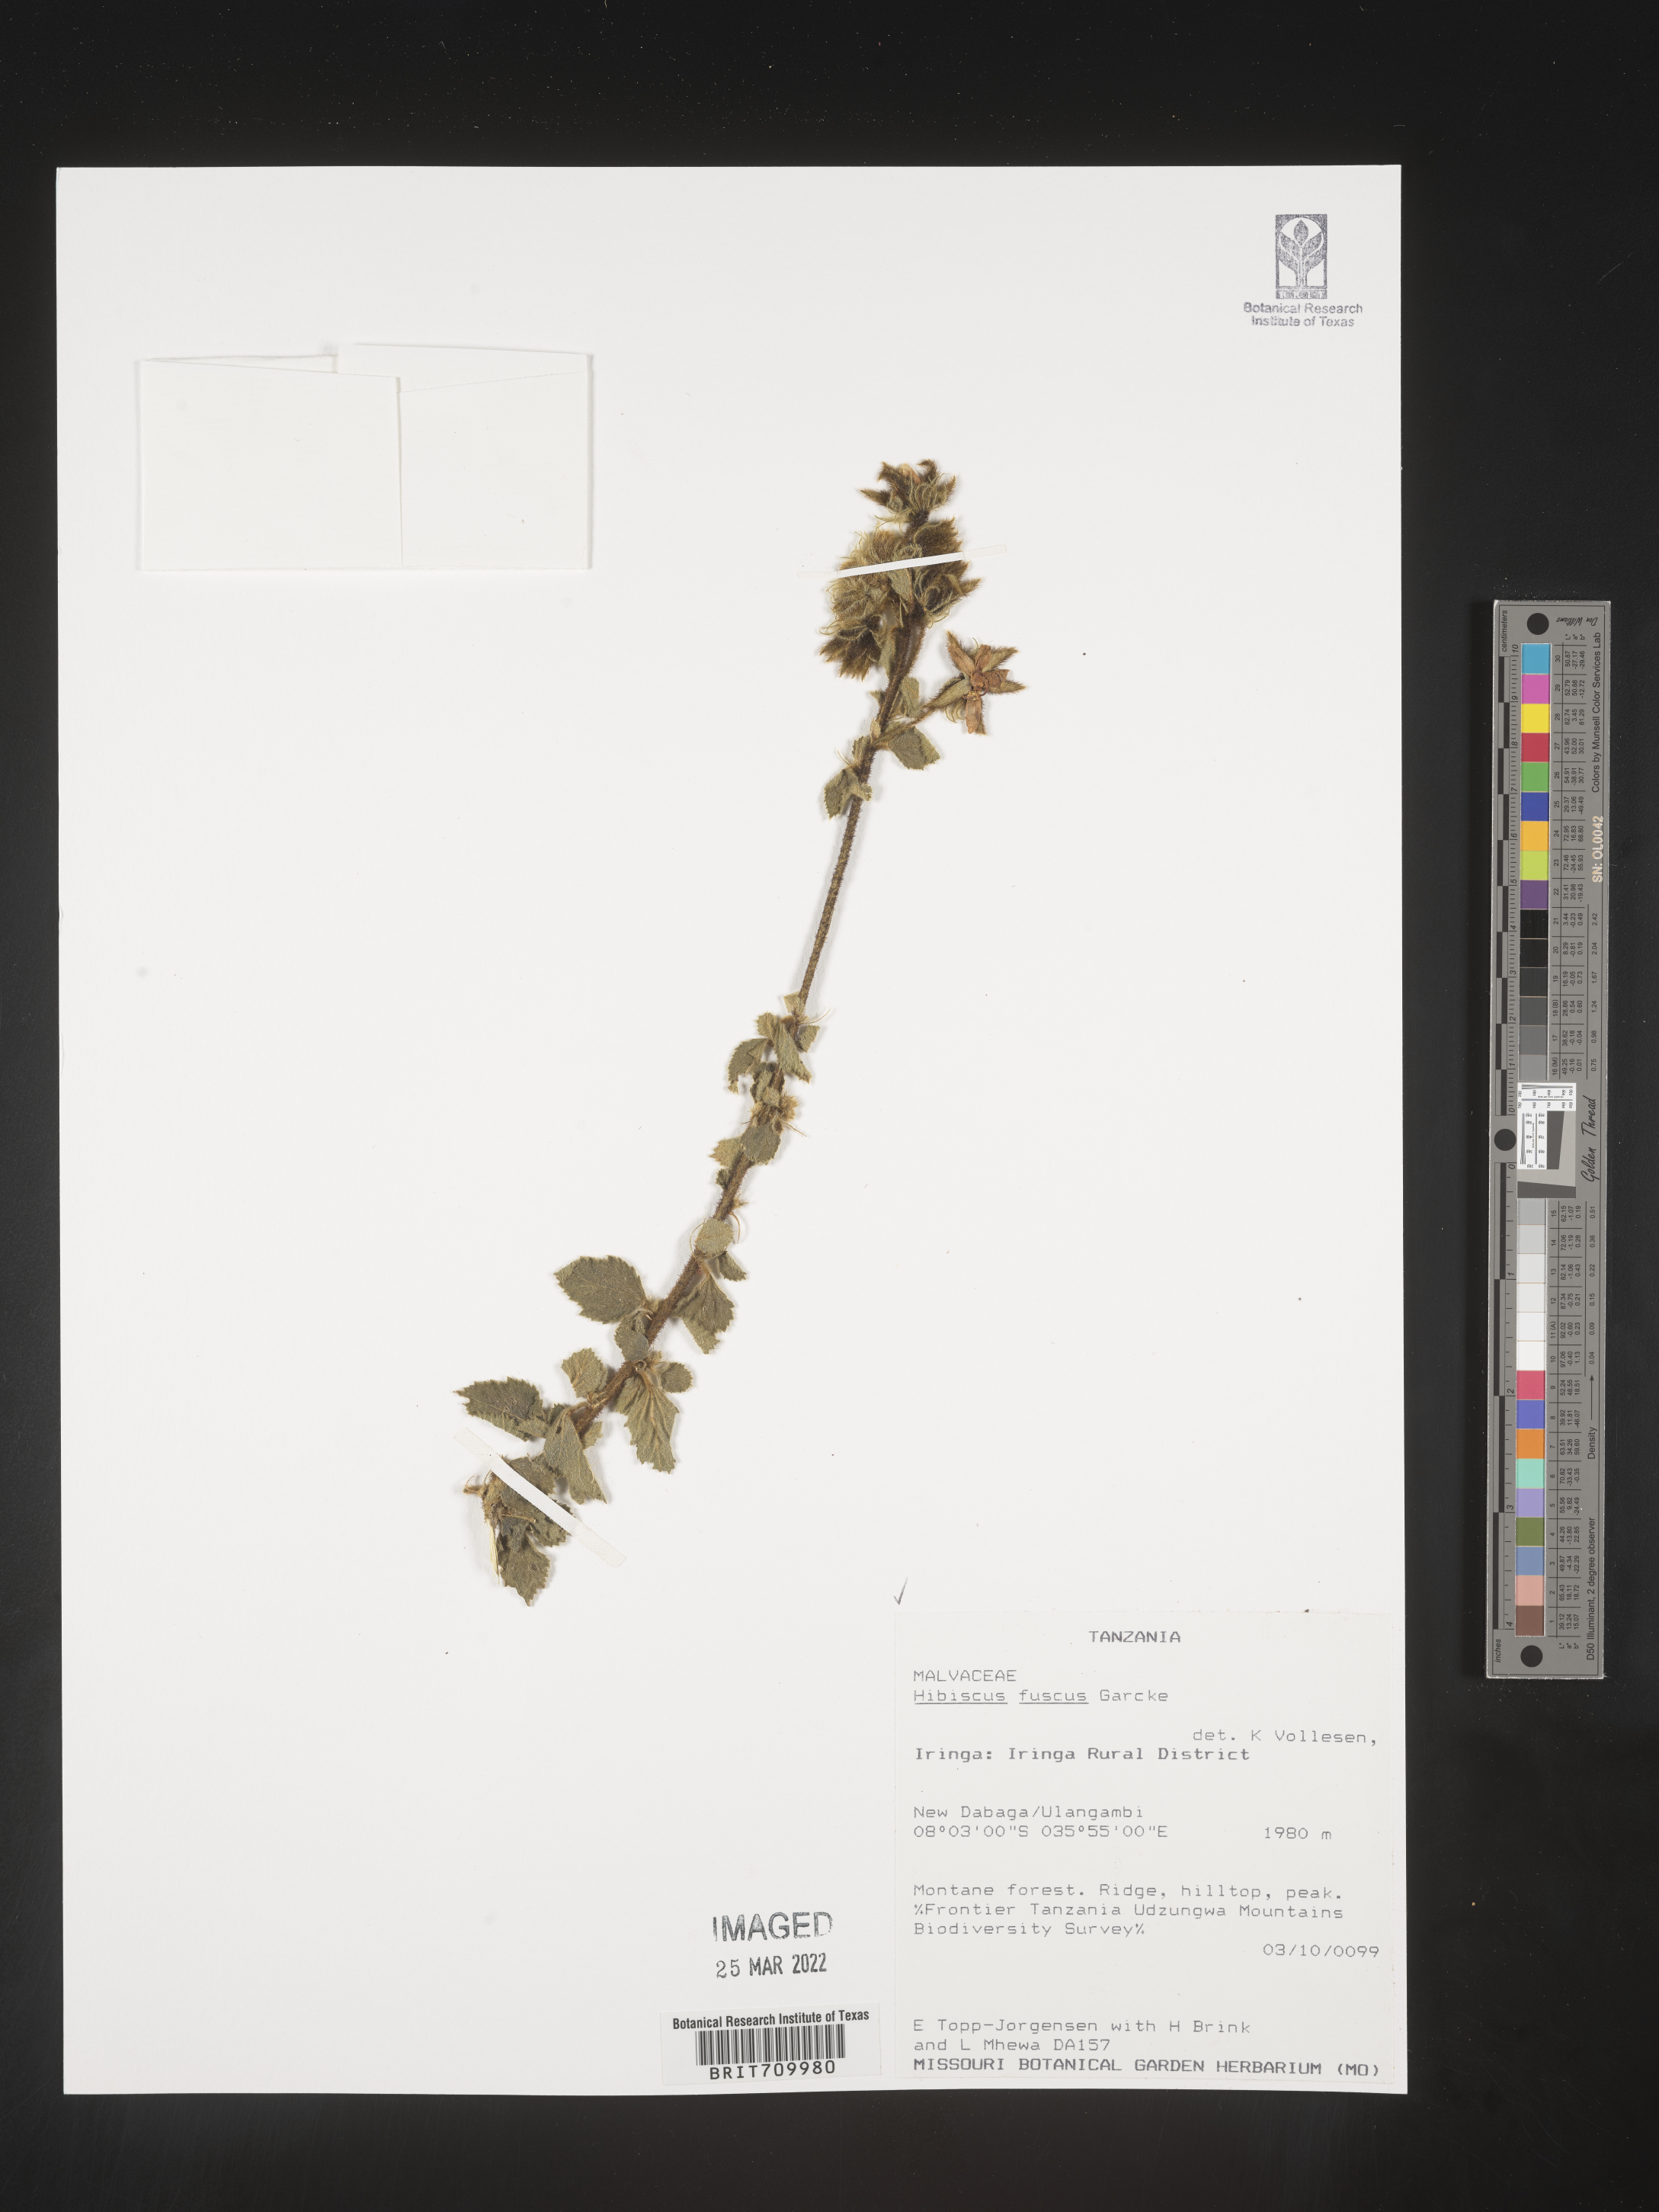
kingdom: Plantae
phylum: Tracheophyta
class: Magnoliopsida
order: Malvales
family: Malvaceae
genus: Hibiscus
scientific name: Hibiscus
